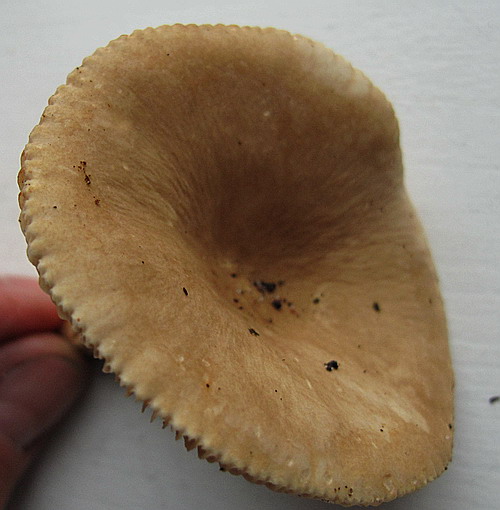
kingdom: Fungi
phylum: Basidiomycota
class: Agaricomycetes
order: Russulales
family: Russulaceae
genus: Lactarius
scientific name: Lactarius ruginosus
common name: gråbrun mælkehat
